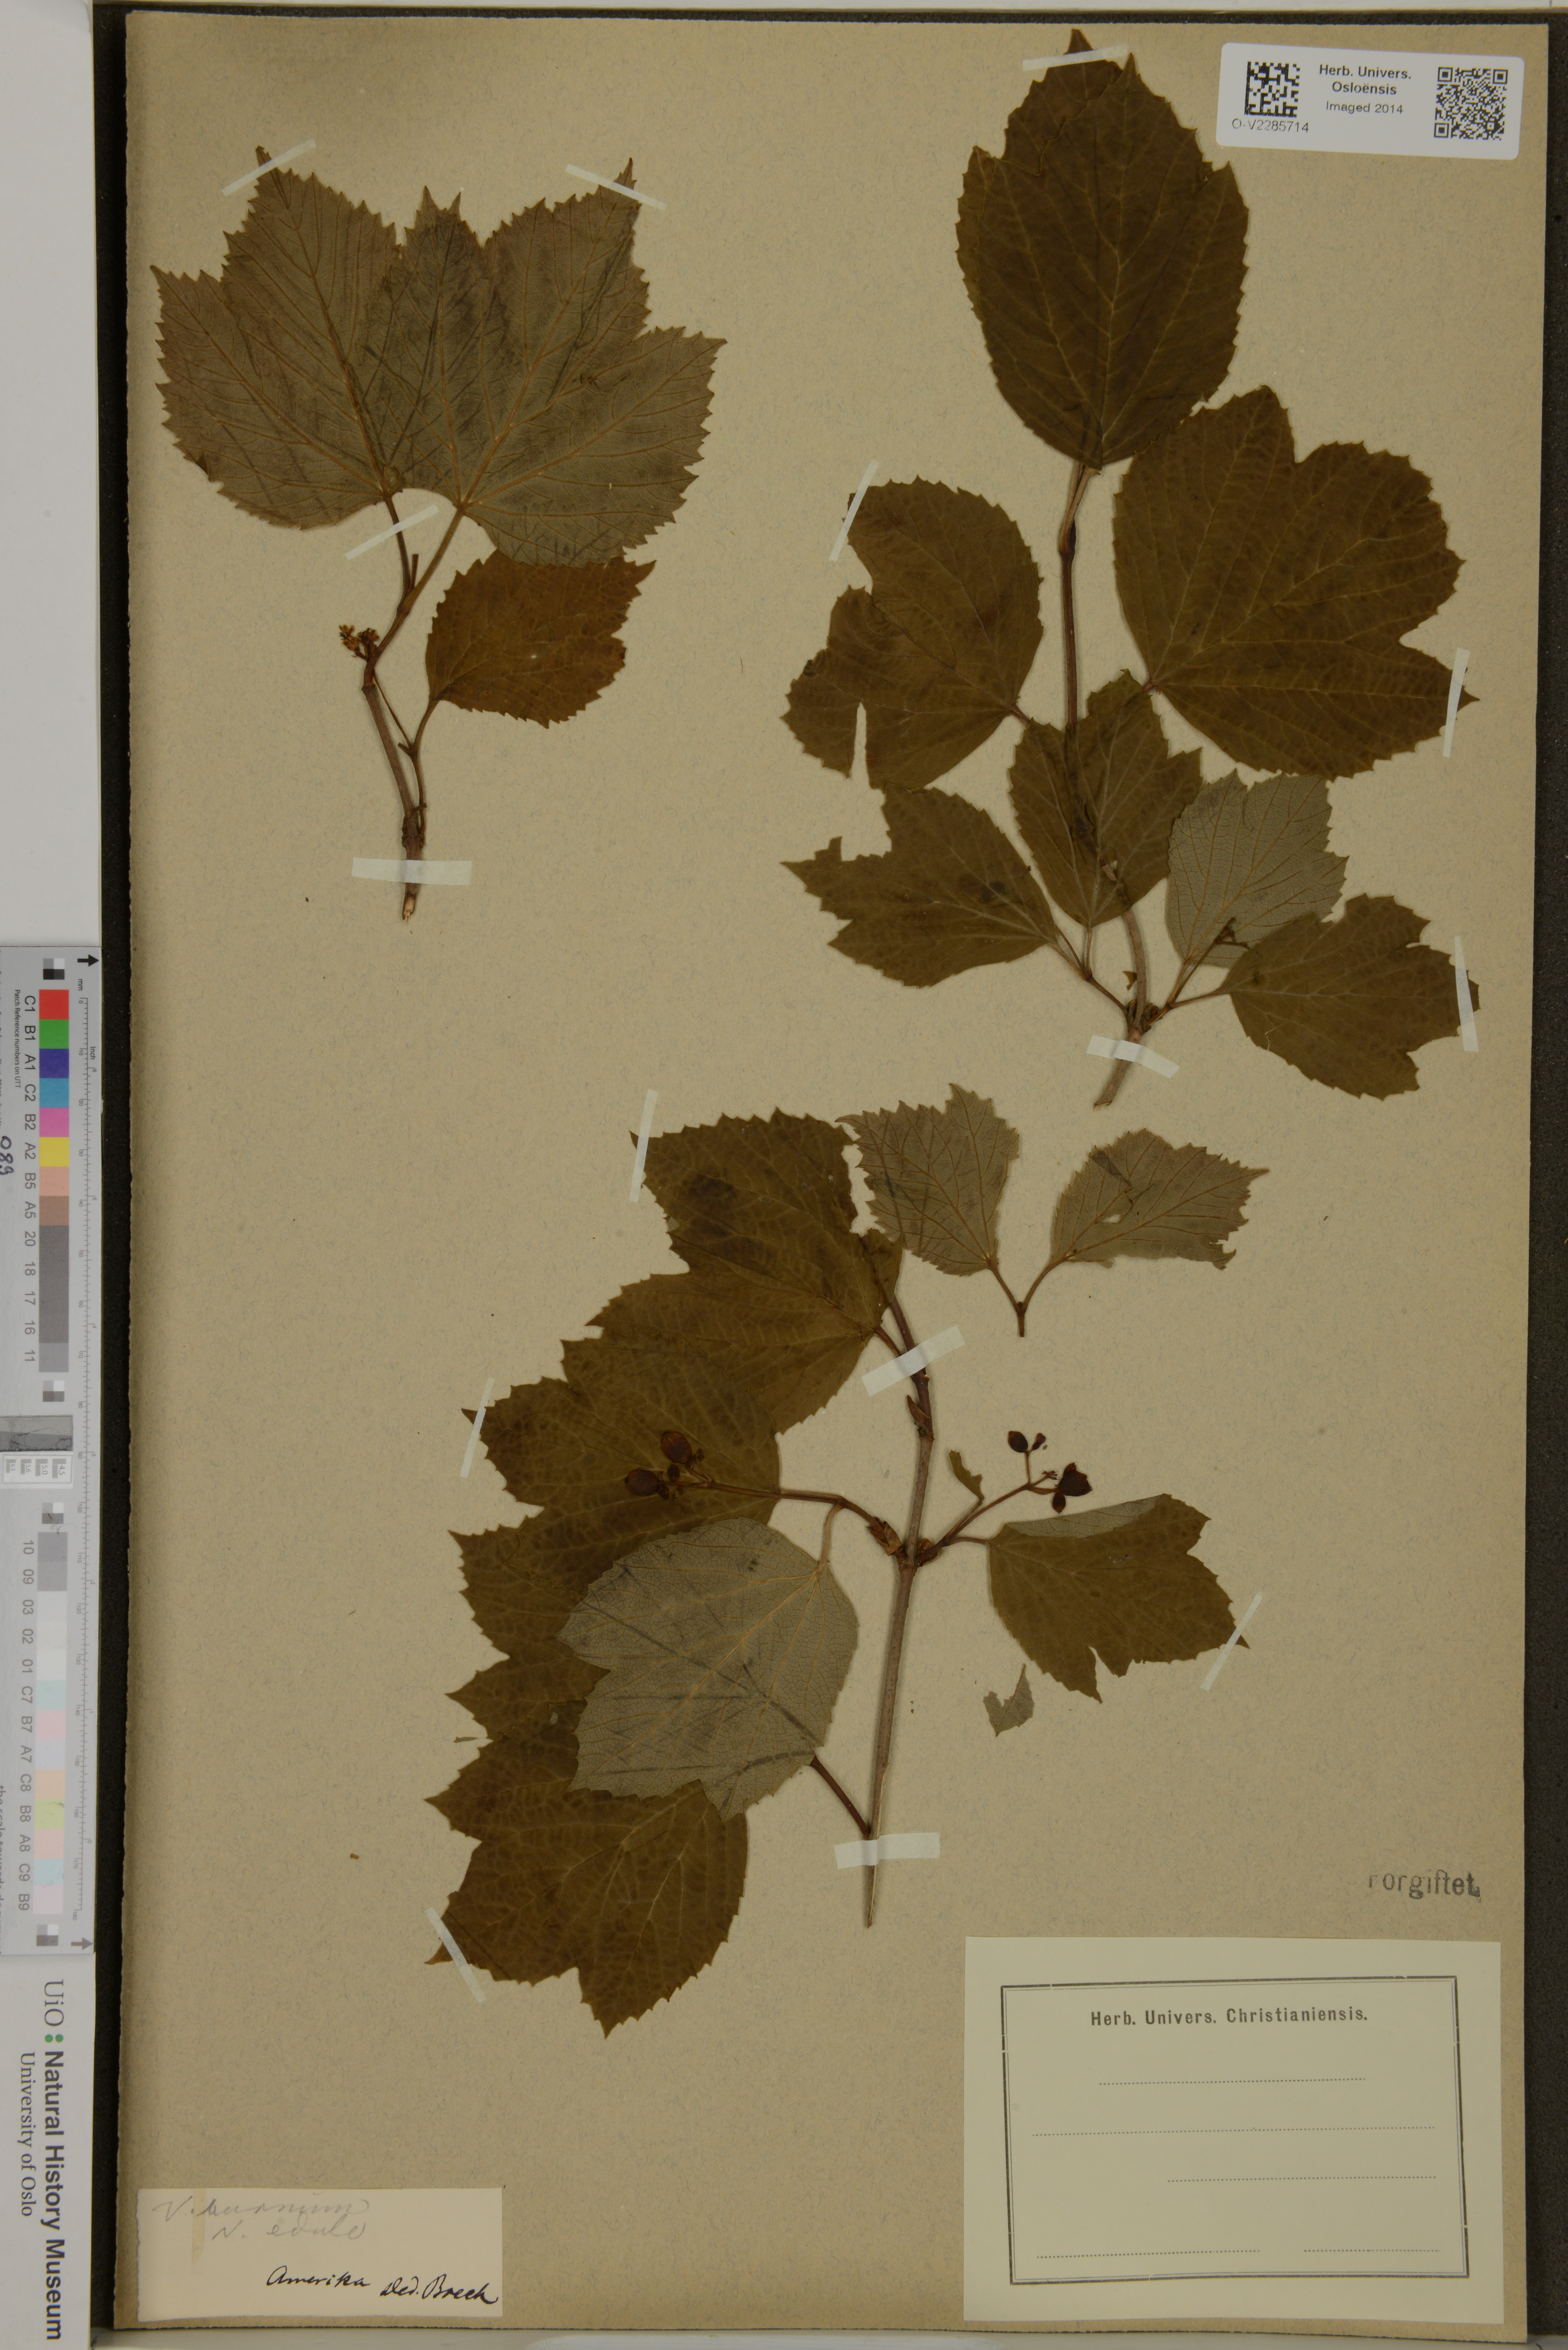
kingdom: Plantae
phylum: Tracheophyta
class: Magnoliopsida
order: Dipsacales
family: Viburnaceae
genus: Viburnum
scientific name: Viburnum
